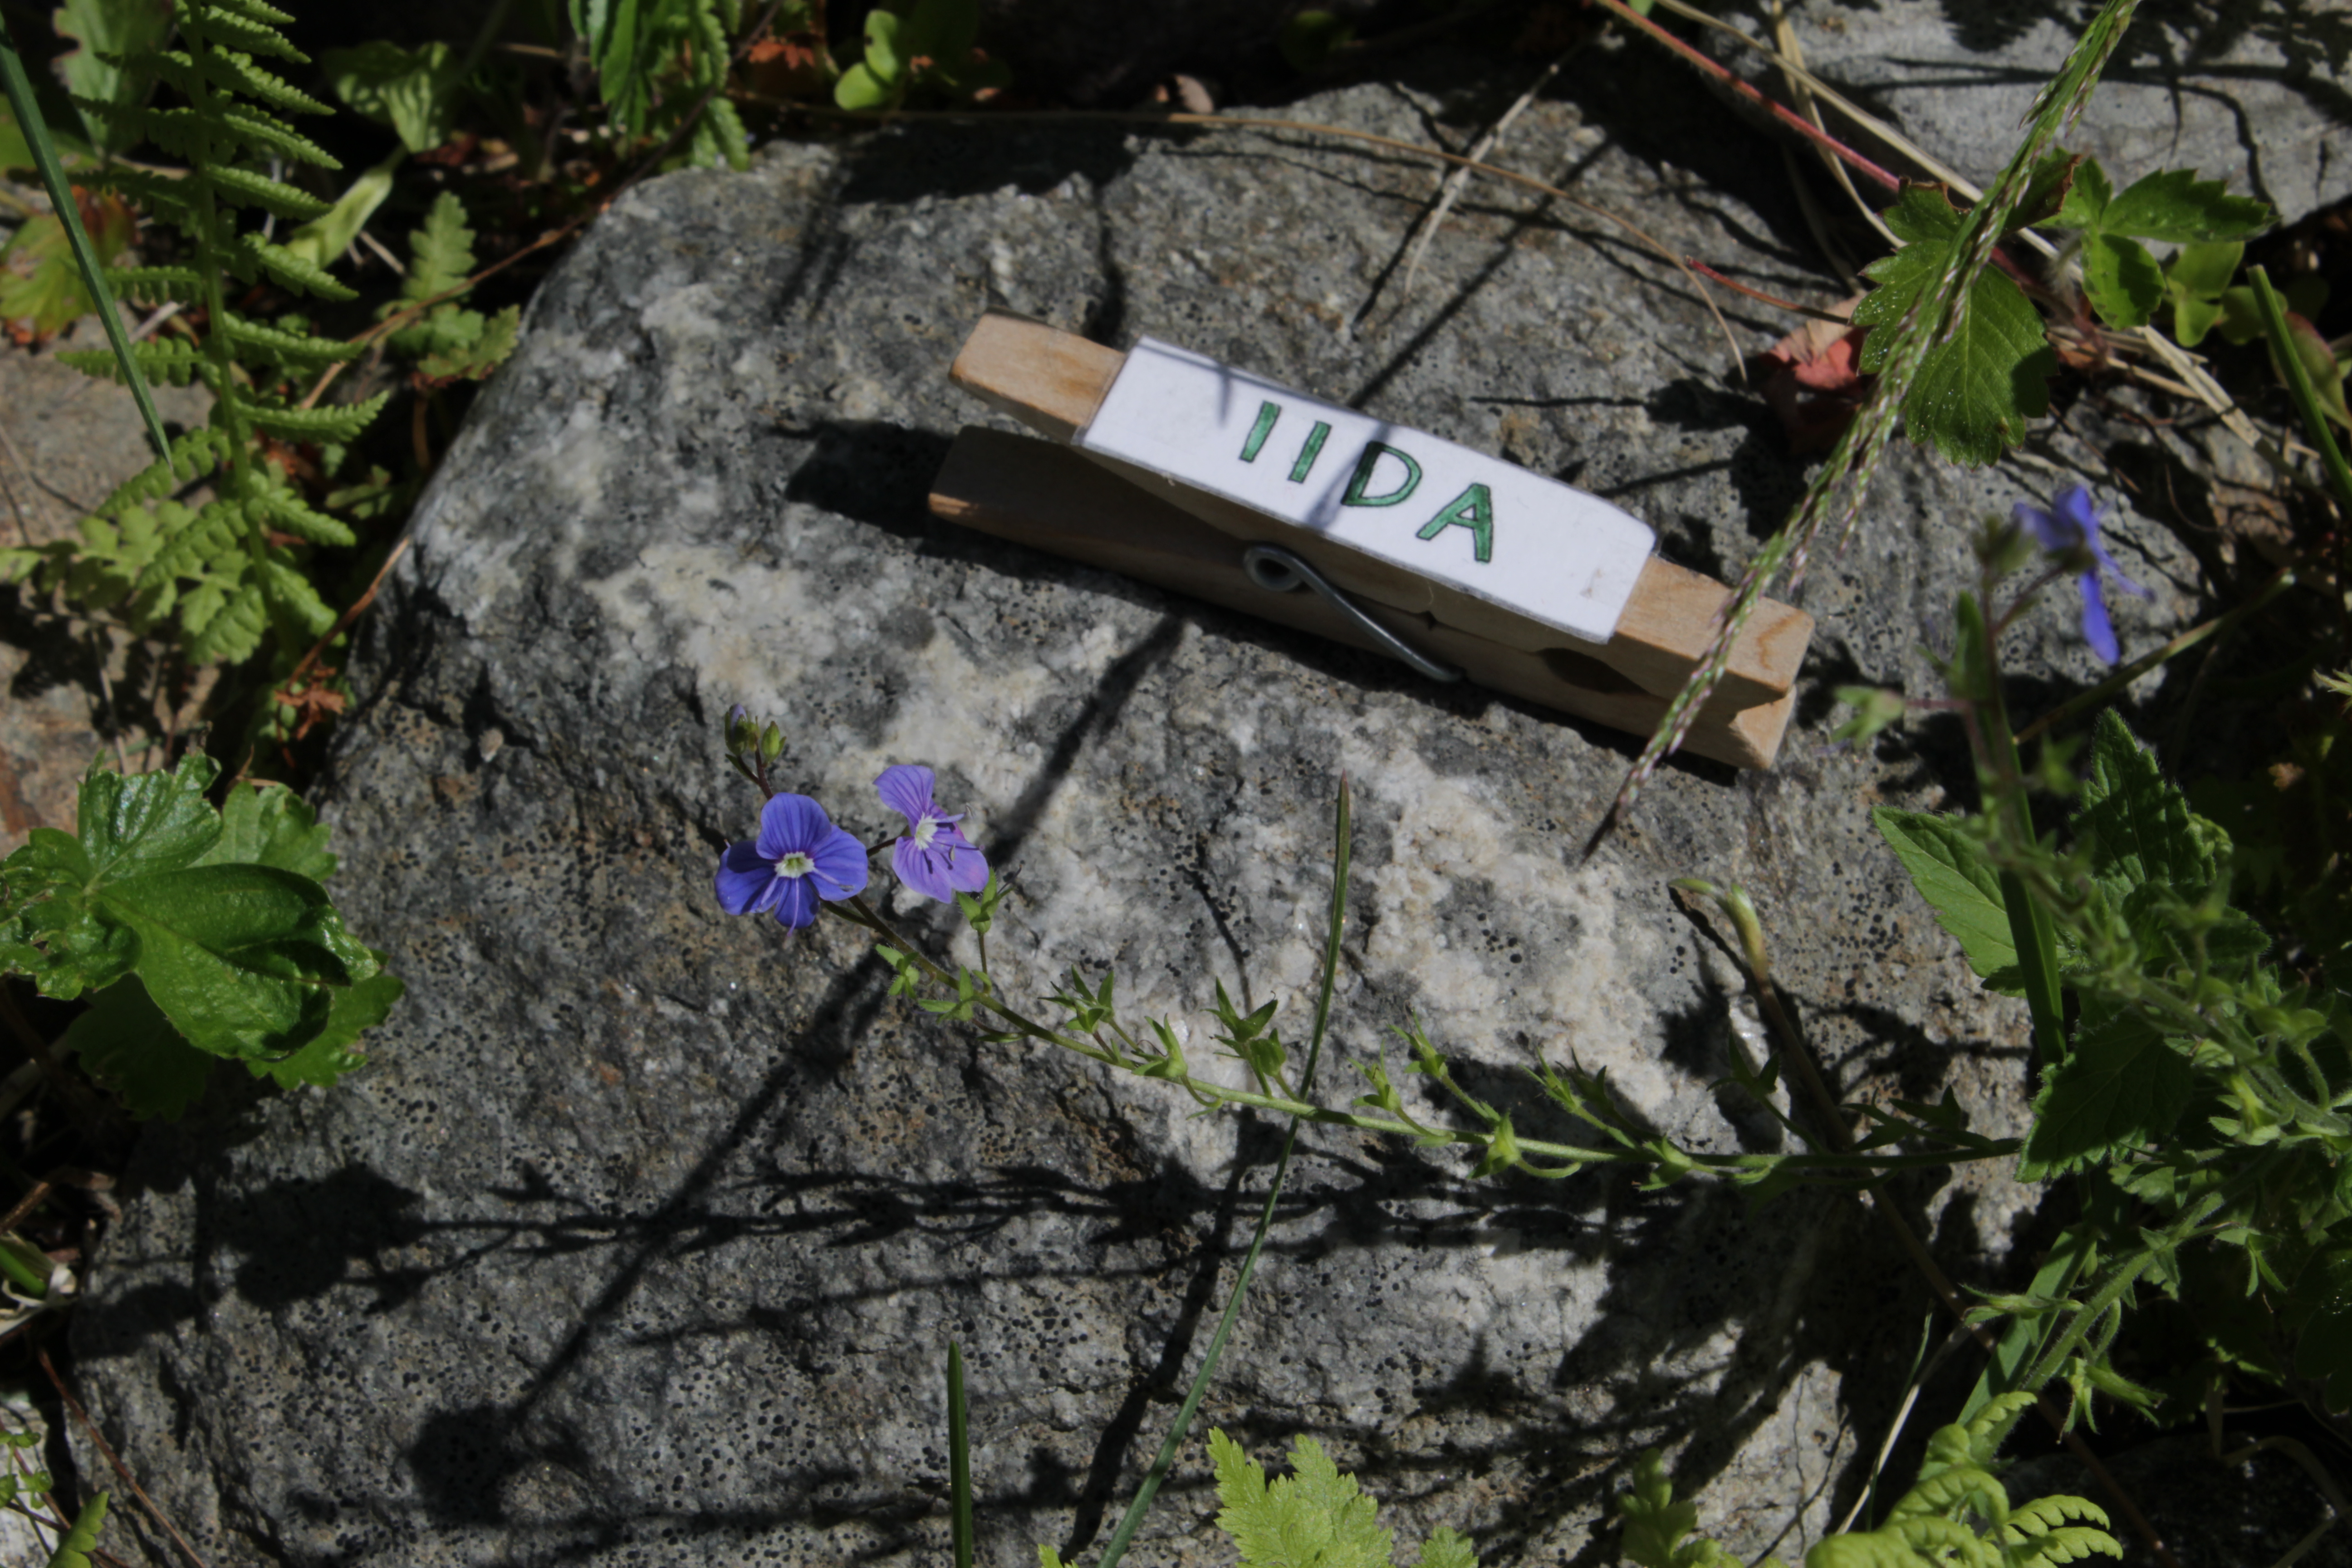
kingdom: Plantae
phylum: Tracheophyta
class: Magnoliopsida
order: Lamiales
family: Plantaginaceae
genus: Veronica
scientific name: Veronica chamaedrys
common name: Germander speedwell
